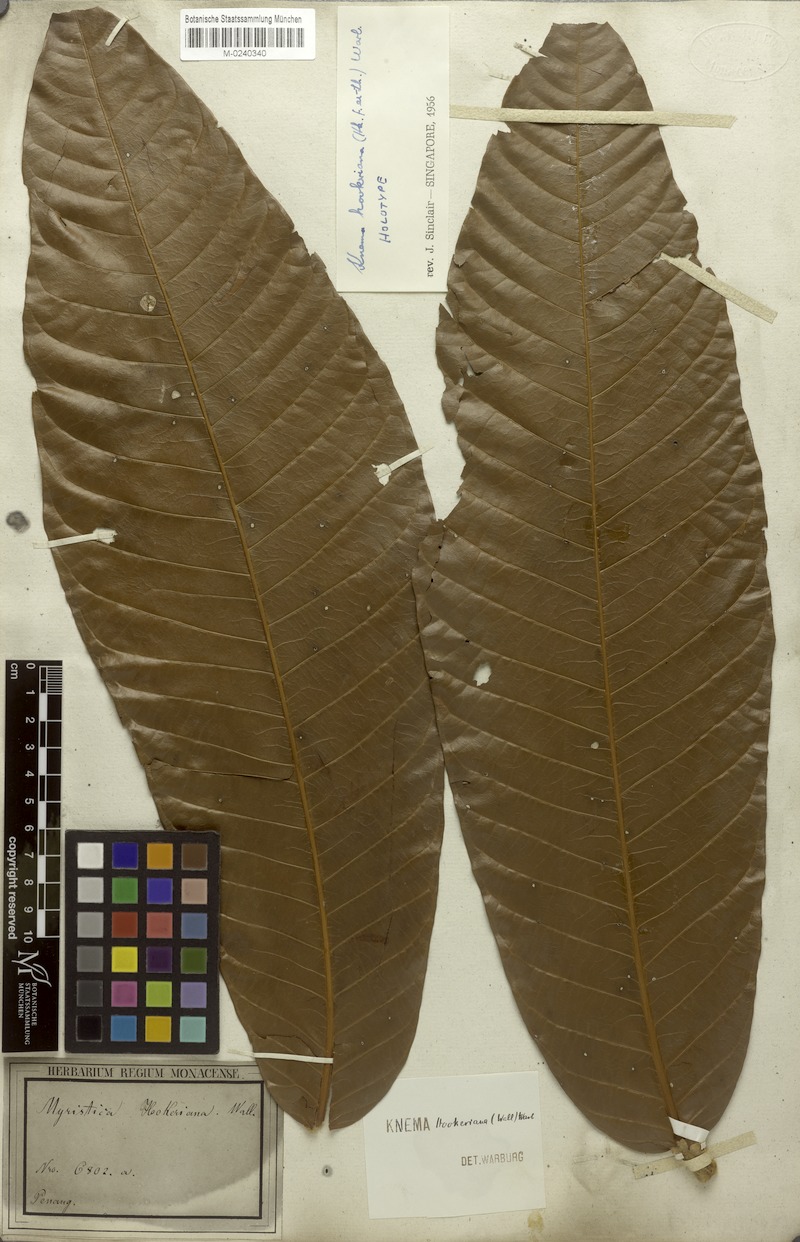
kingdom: Plantae
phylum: Tracheophyta
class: Magnoliopsida
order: Magnoliales
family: Myristicaceae
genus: Knema
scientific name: Knema hookeriana
